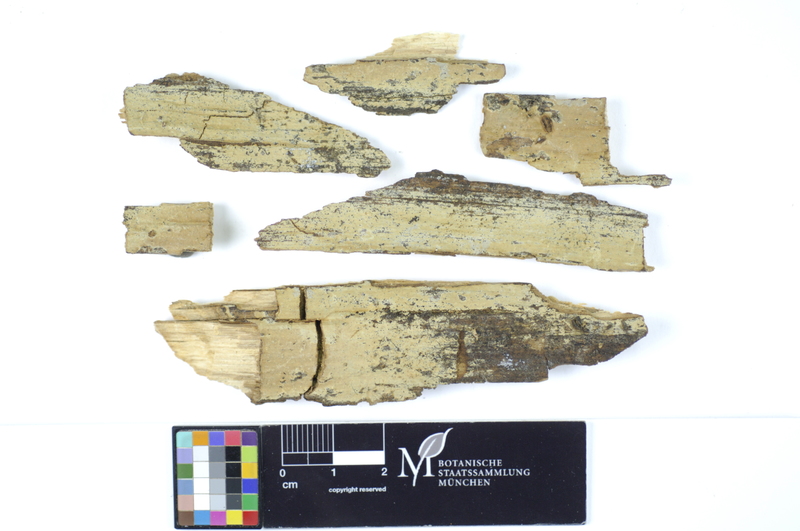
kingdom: Plantae
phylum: Tracheophyta
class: Magnoliopsida
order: Lamiales
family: Oleaceae
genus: Fraxinus
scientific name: Fraxinus
